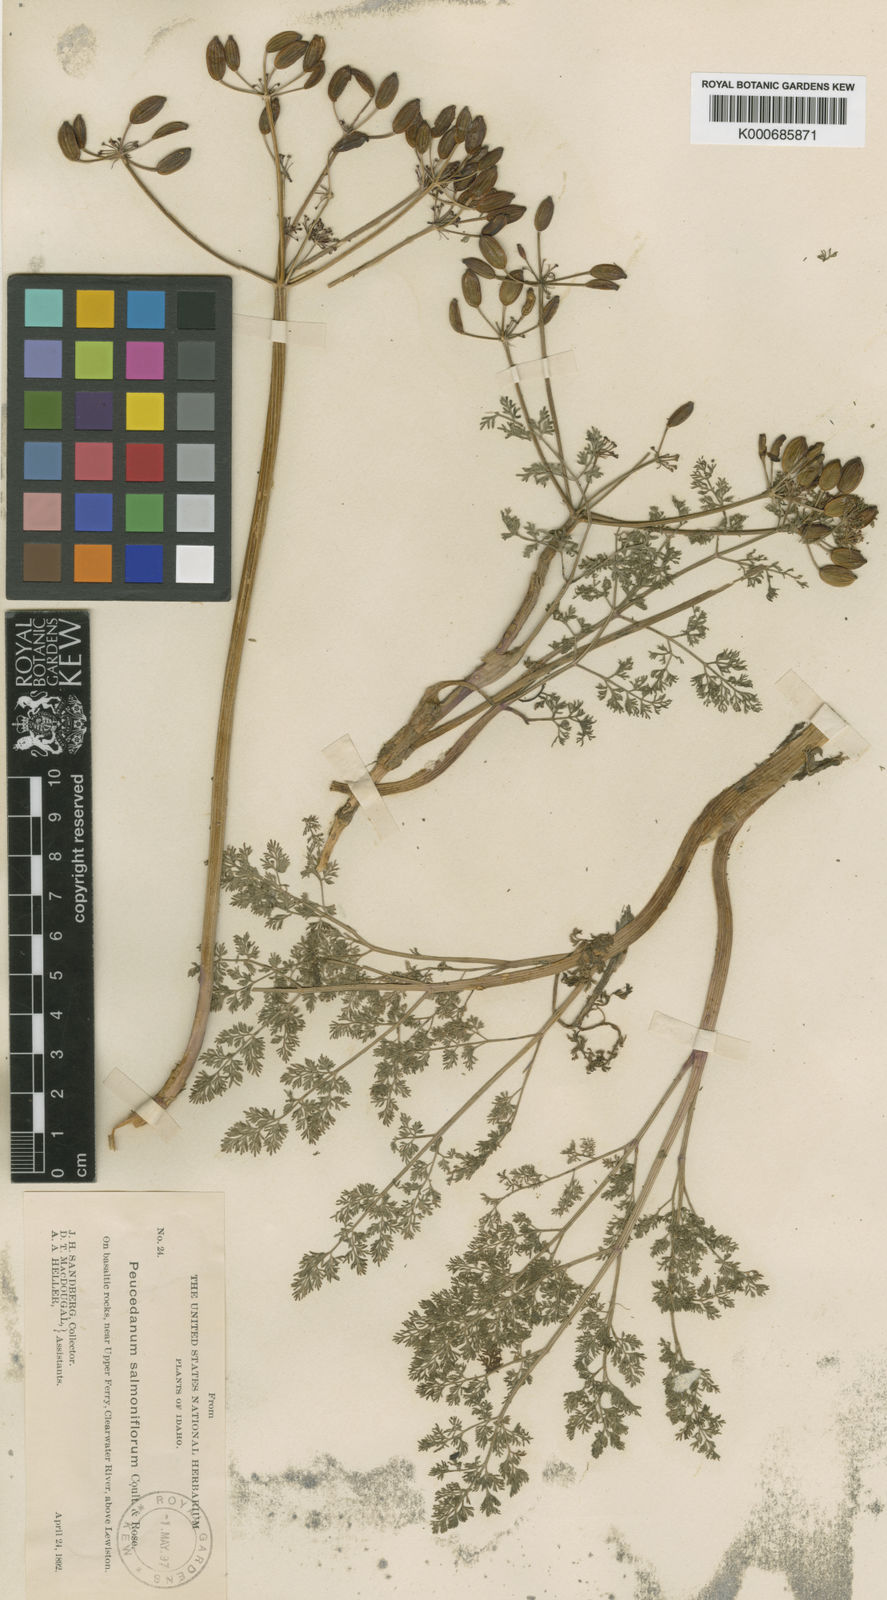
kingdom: Plantae
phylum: Tracheophyta
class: Magnoliopsida
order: Apiales
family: Apiaceae
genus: Lomatium
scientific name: Lomatium salmoniflorum
